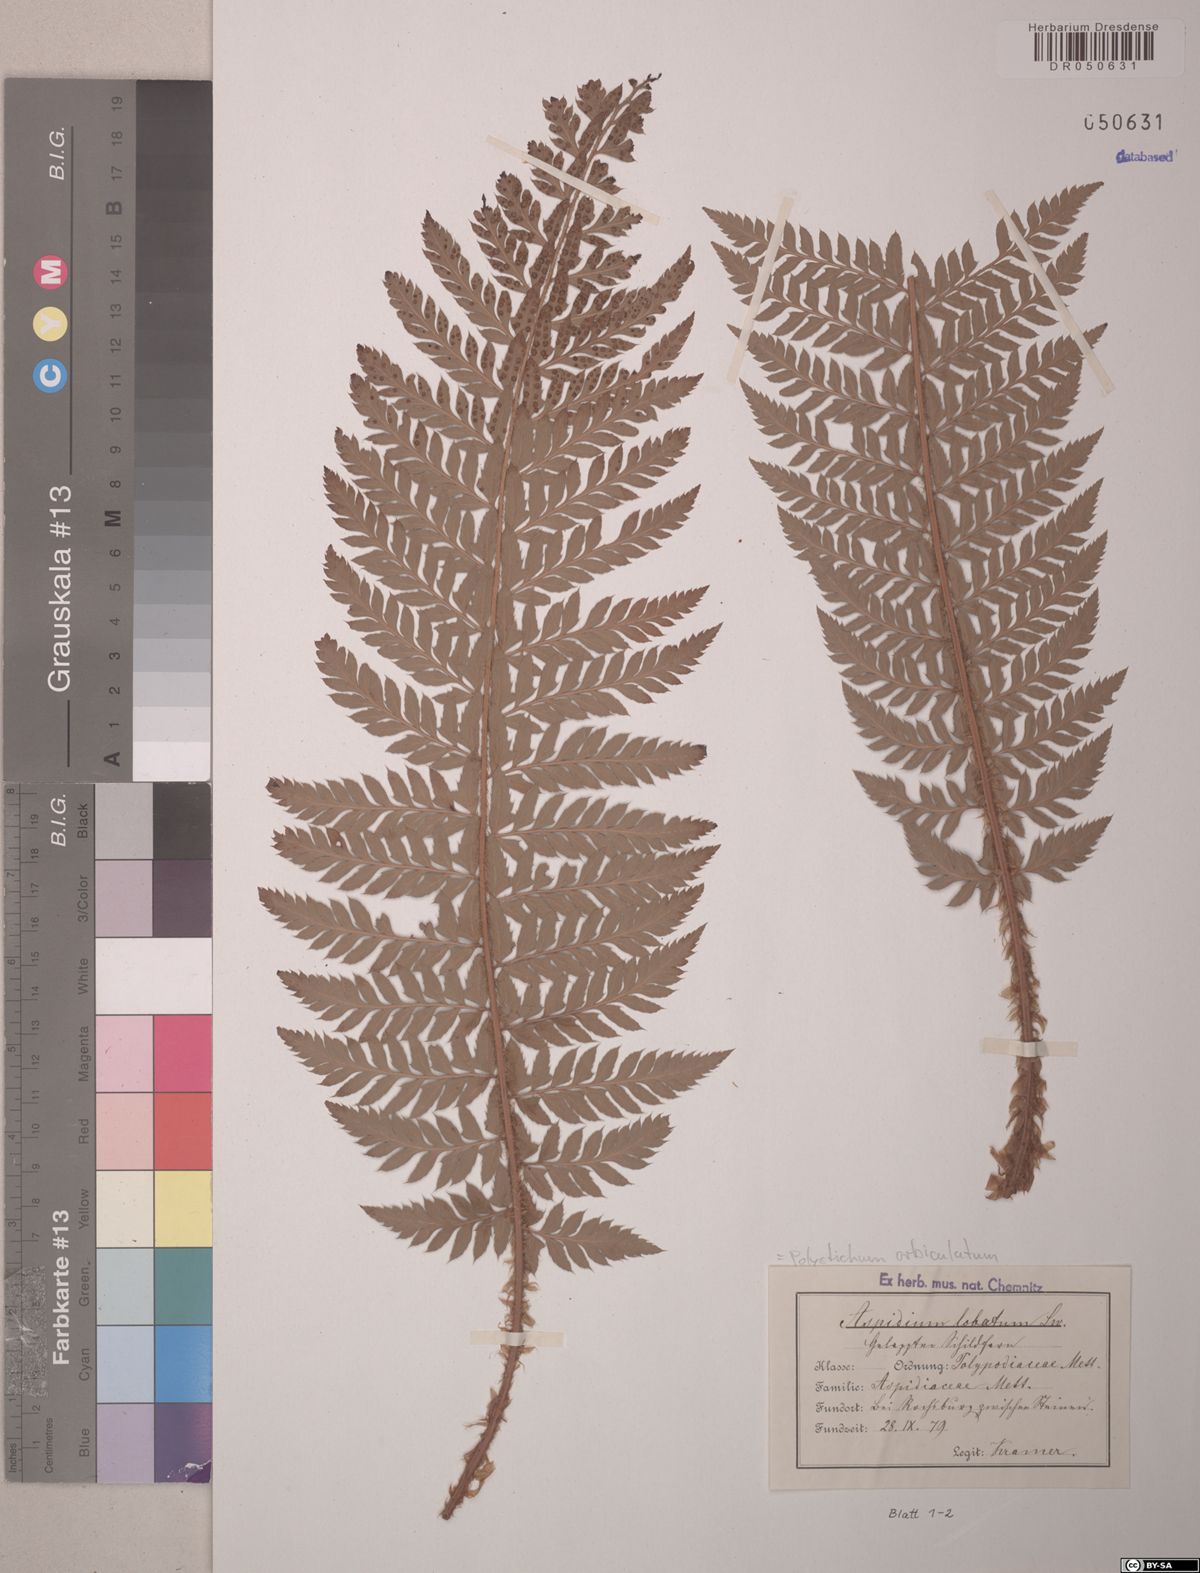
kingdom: Plantae
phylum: Tracheophyta
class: Polypodiopsida
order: Polypodiales
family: Dryopteridaceae
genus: Polystichum
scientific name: Polystichum aculeatum
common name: Hard shield-fern
